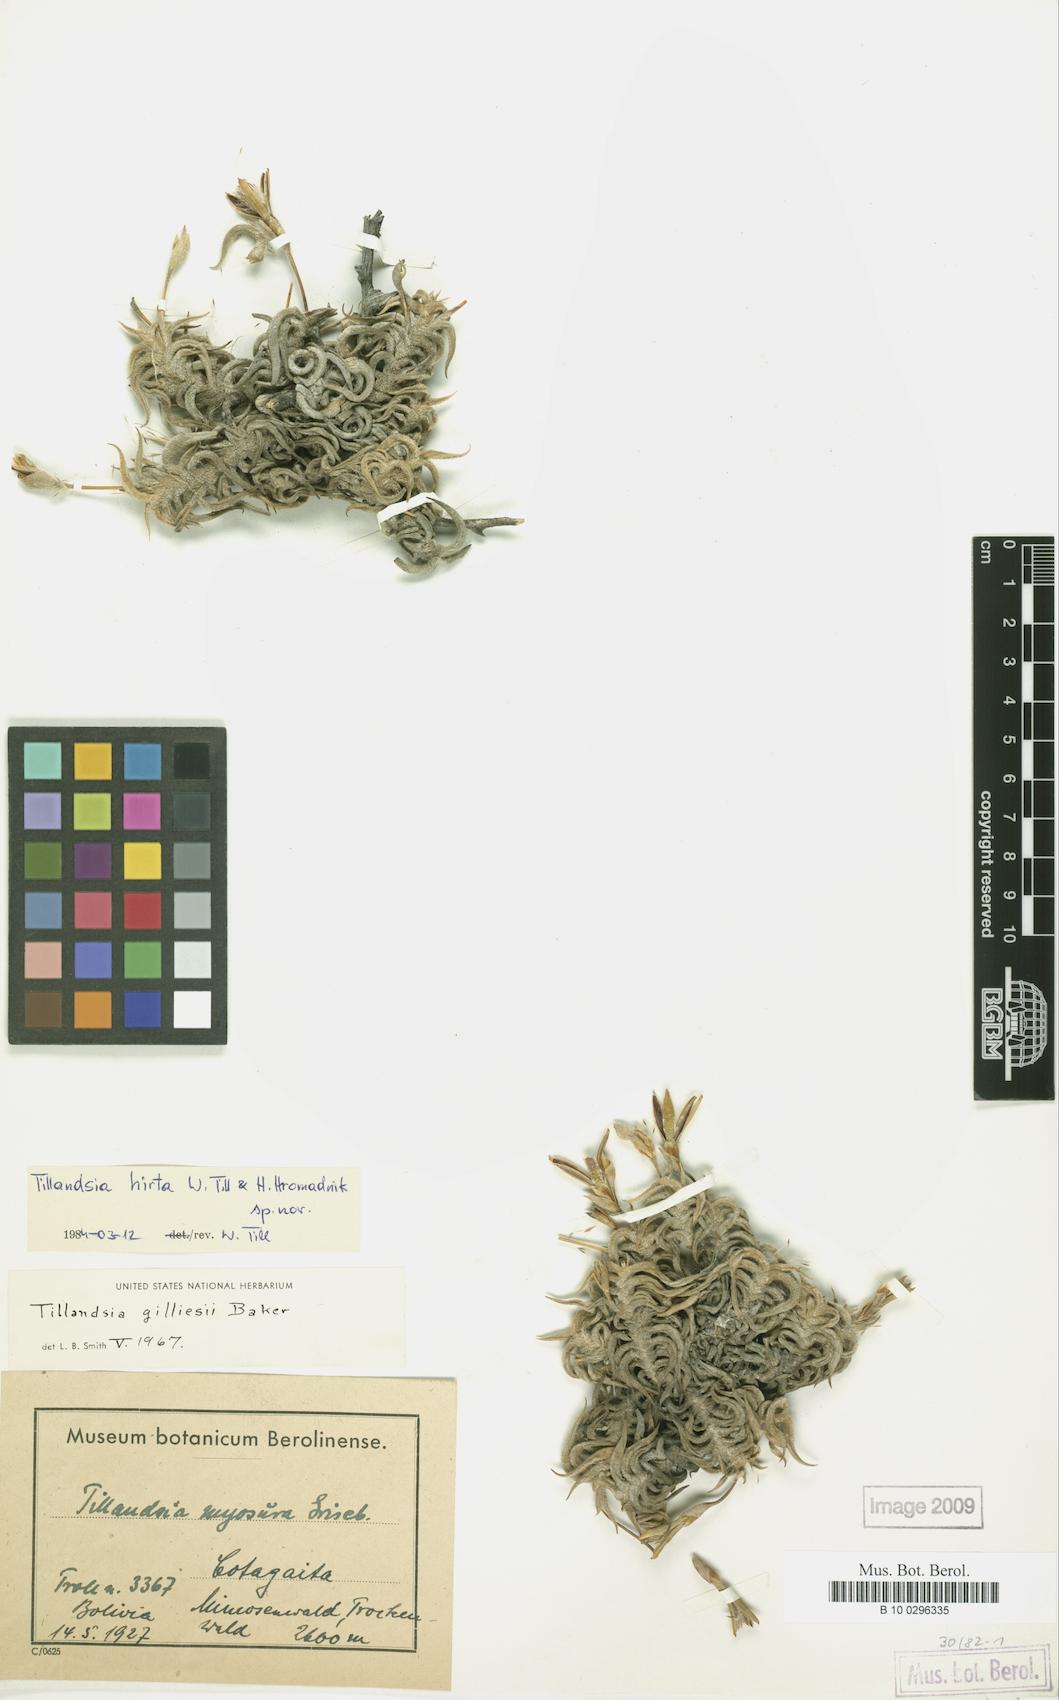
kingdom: Plantae
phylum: Tracheophyta
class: Liliopsida
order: Poales
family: Bromeliaceae
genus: Tillandsia
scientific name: Tillandsia hirta
